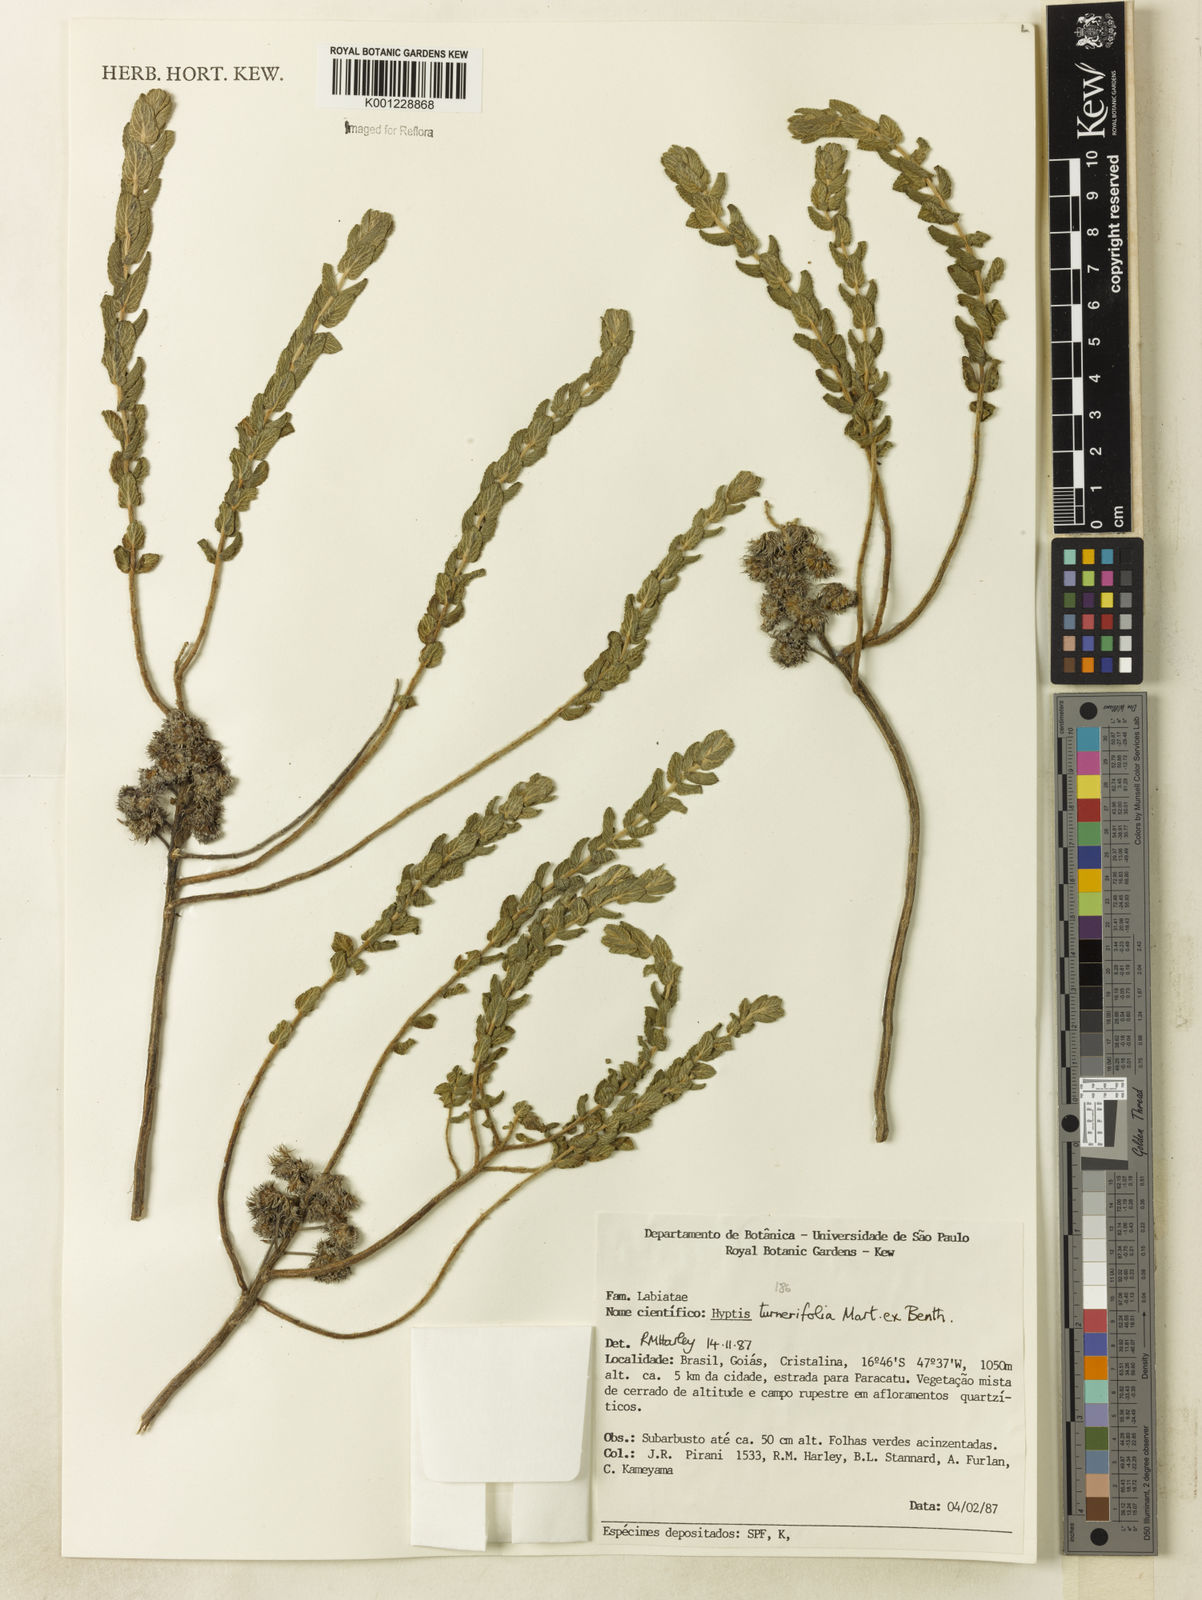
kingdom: Plantae
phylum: Tracheophyta
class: Magnoliopsida
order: Lamiales
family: Lamiaceae
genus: Hyptis
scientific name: Hyptis turnerifolia
